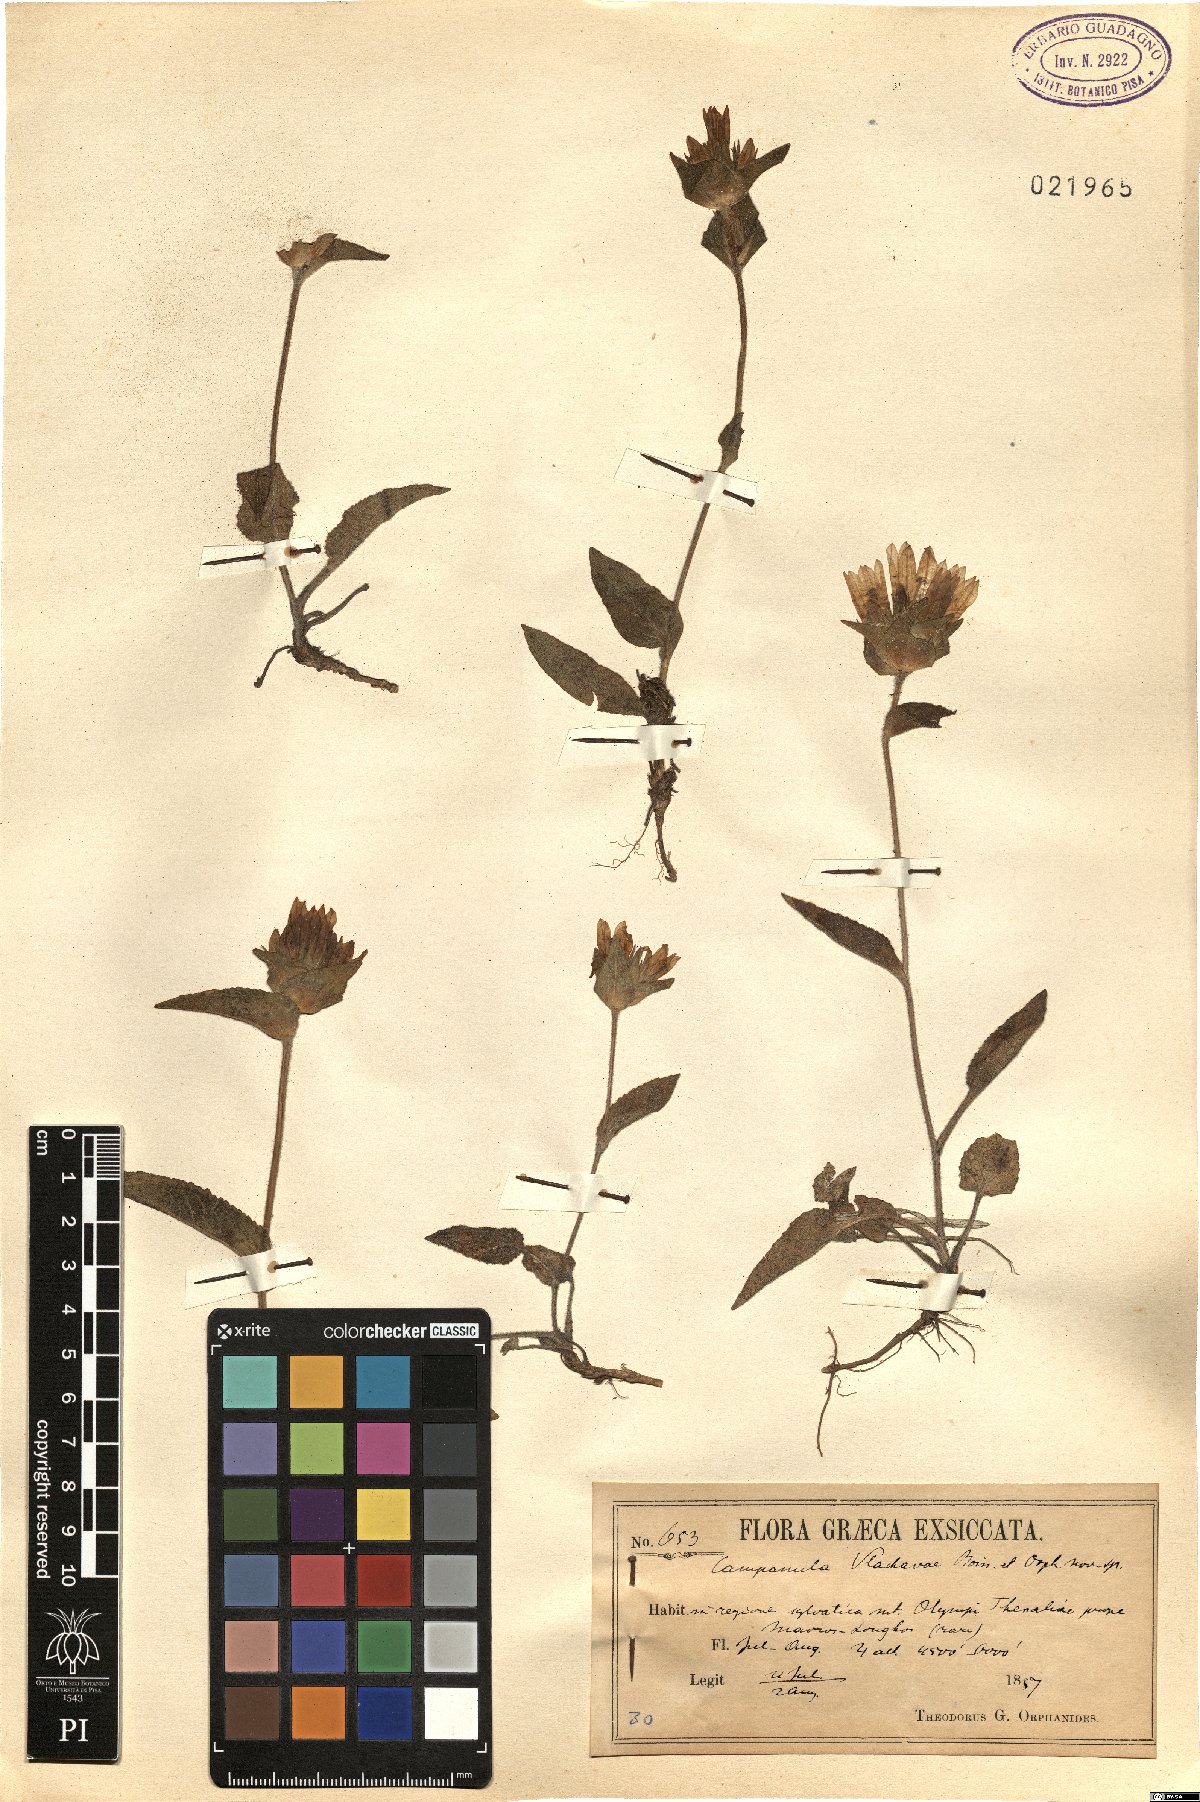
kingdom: Plantae
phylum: Tracheophyta
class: Magnoliopsida
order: Asterales
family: Campanulaceae
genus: Campanula
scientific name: Campanula glomerata
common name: Clustered bellflower
